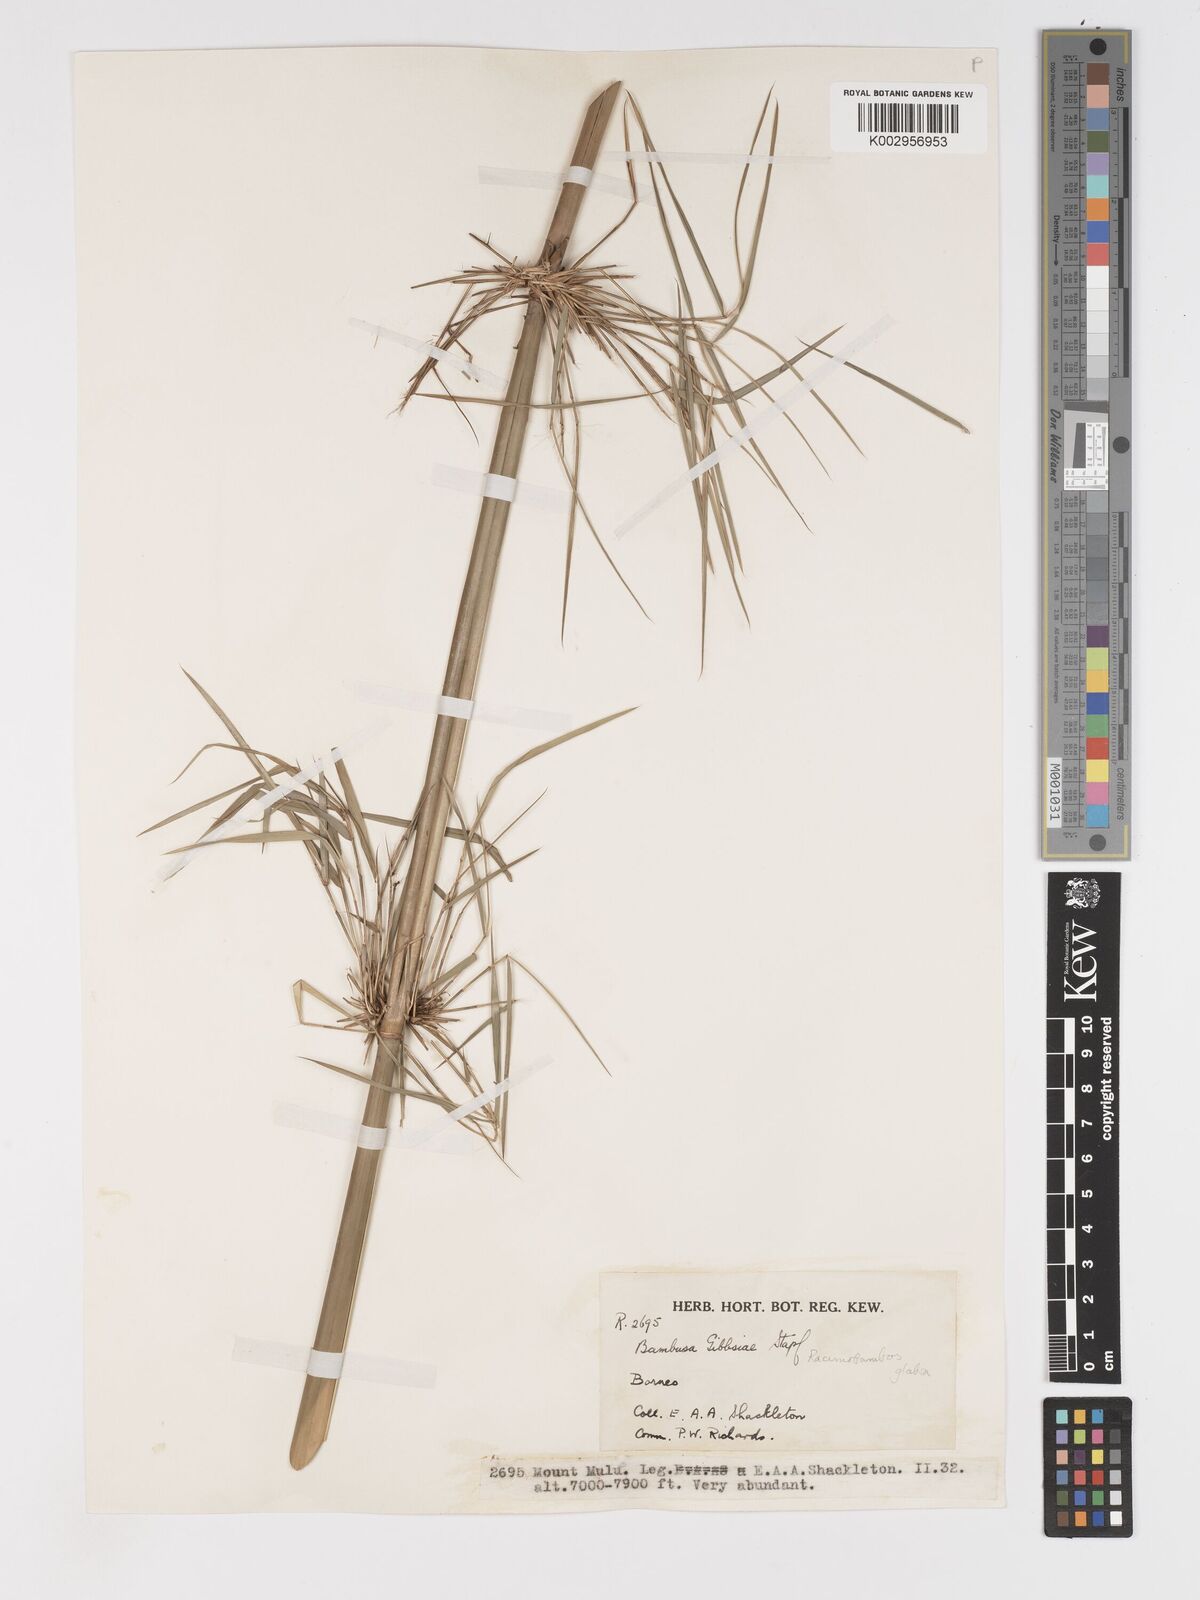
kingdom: Plantae
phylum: Tracheophyta
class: Liliopsida
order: Poales
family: Poaceae
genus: Racemobambos
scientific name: Racemobambos glabra
